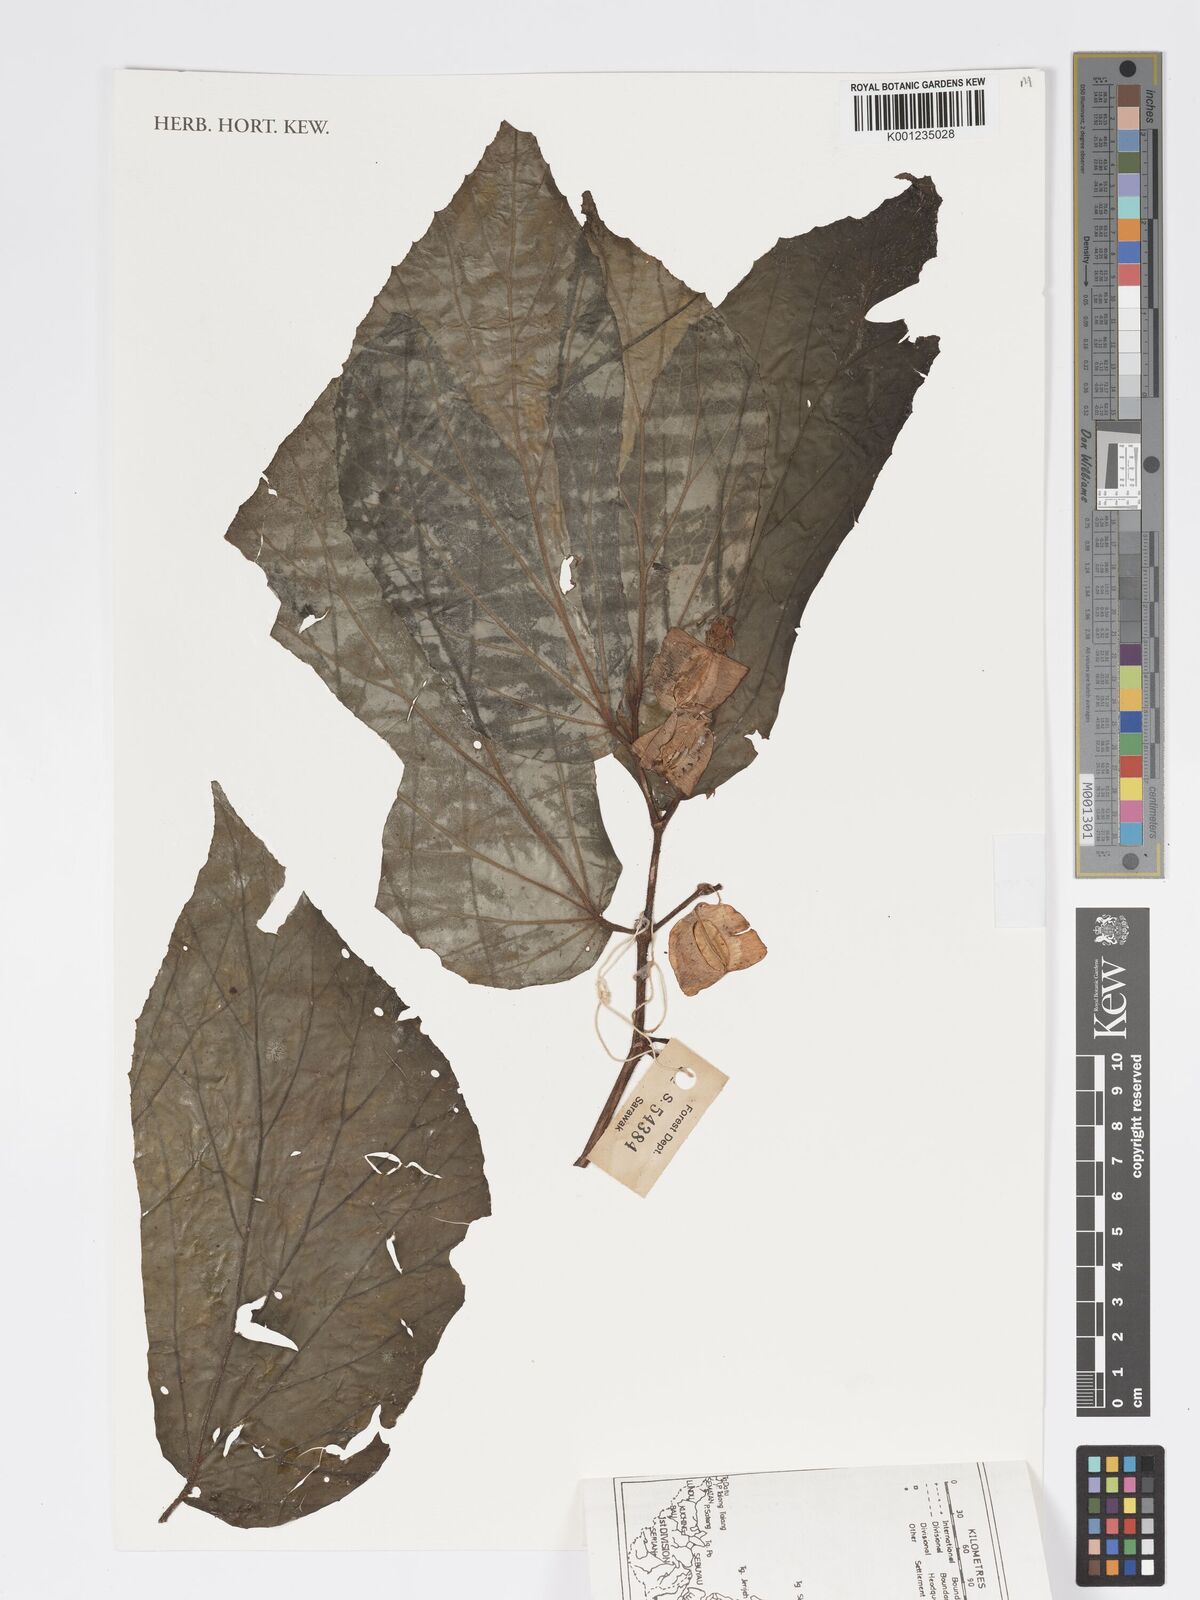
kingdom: Plantae
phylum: Tracheophyta
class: Magnoliopsida
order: Cucurbitales
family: Begoniaceae
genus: Begonia
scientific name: Begonia lailana
